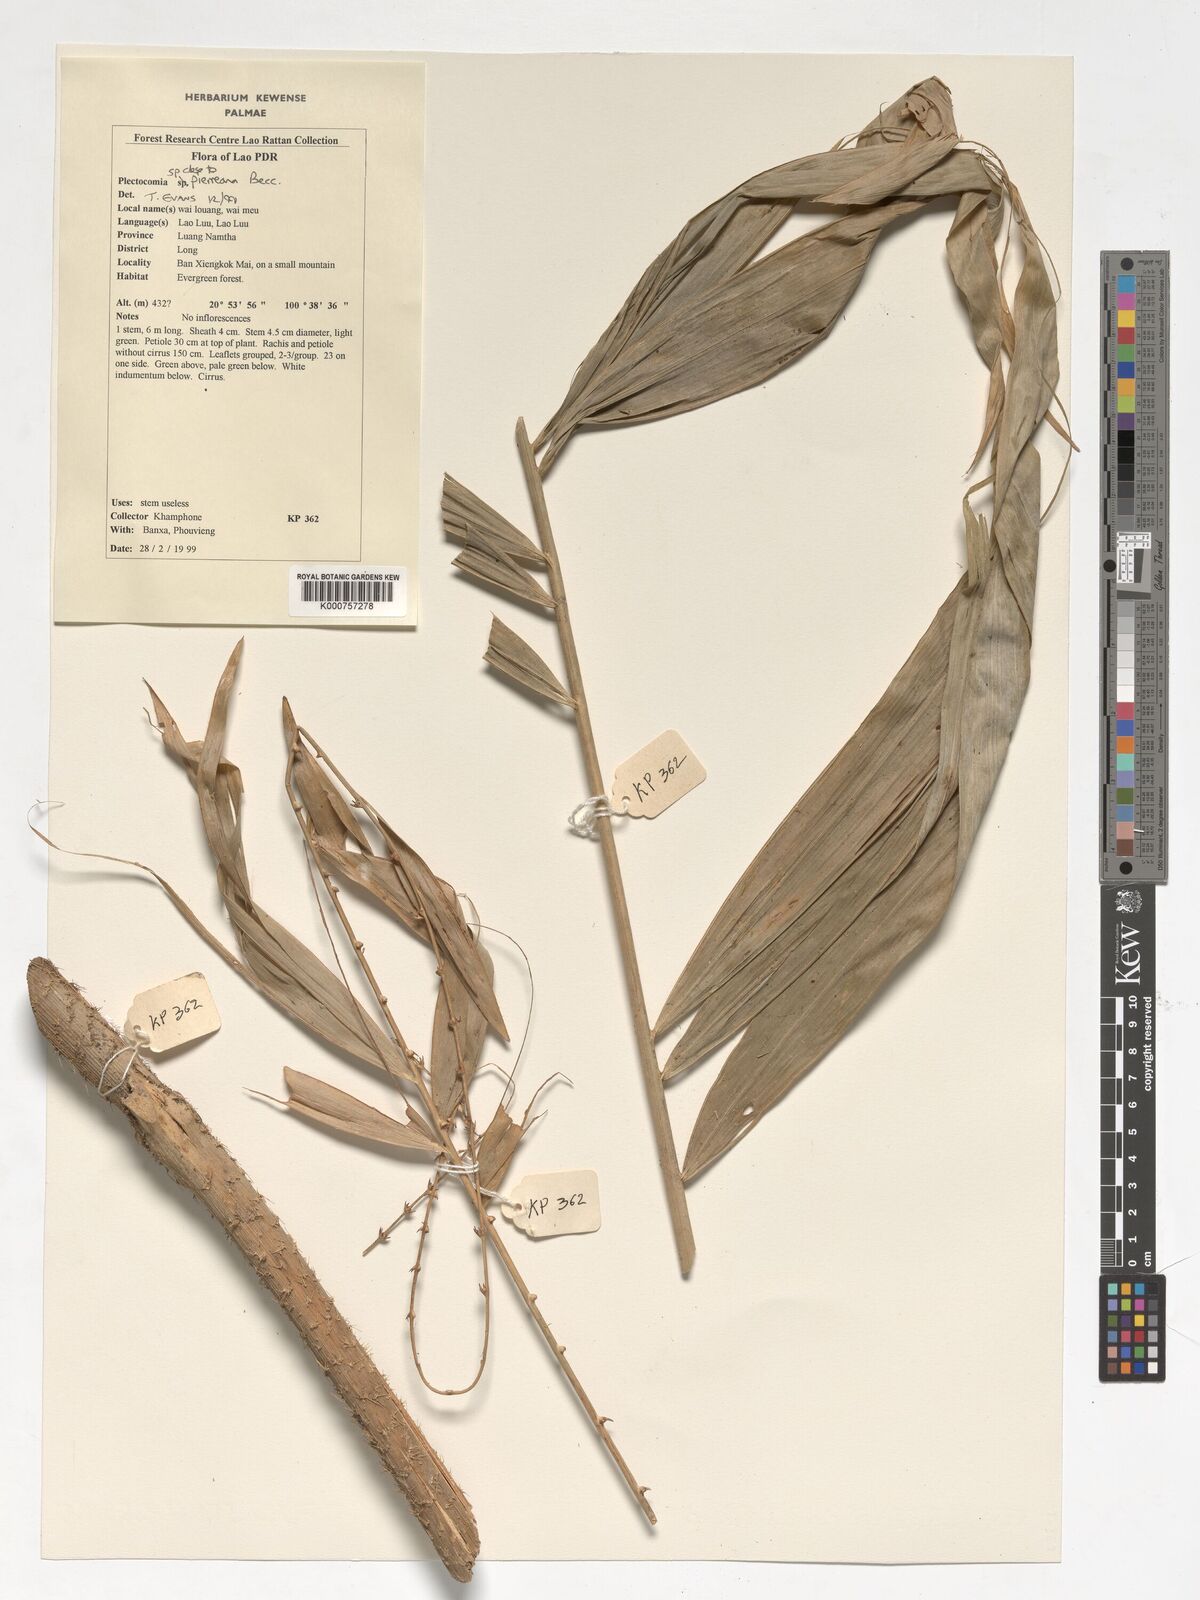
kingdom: Plantae
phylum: Tracheophyta
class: Liliopsida
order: Arecales
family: Arecaceae
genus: Plectocomia
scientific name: Plectocomia pierreana
